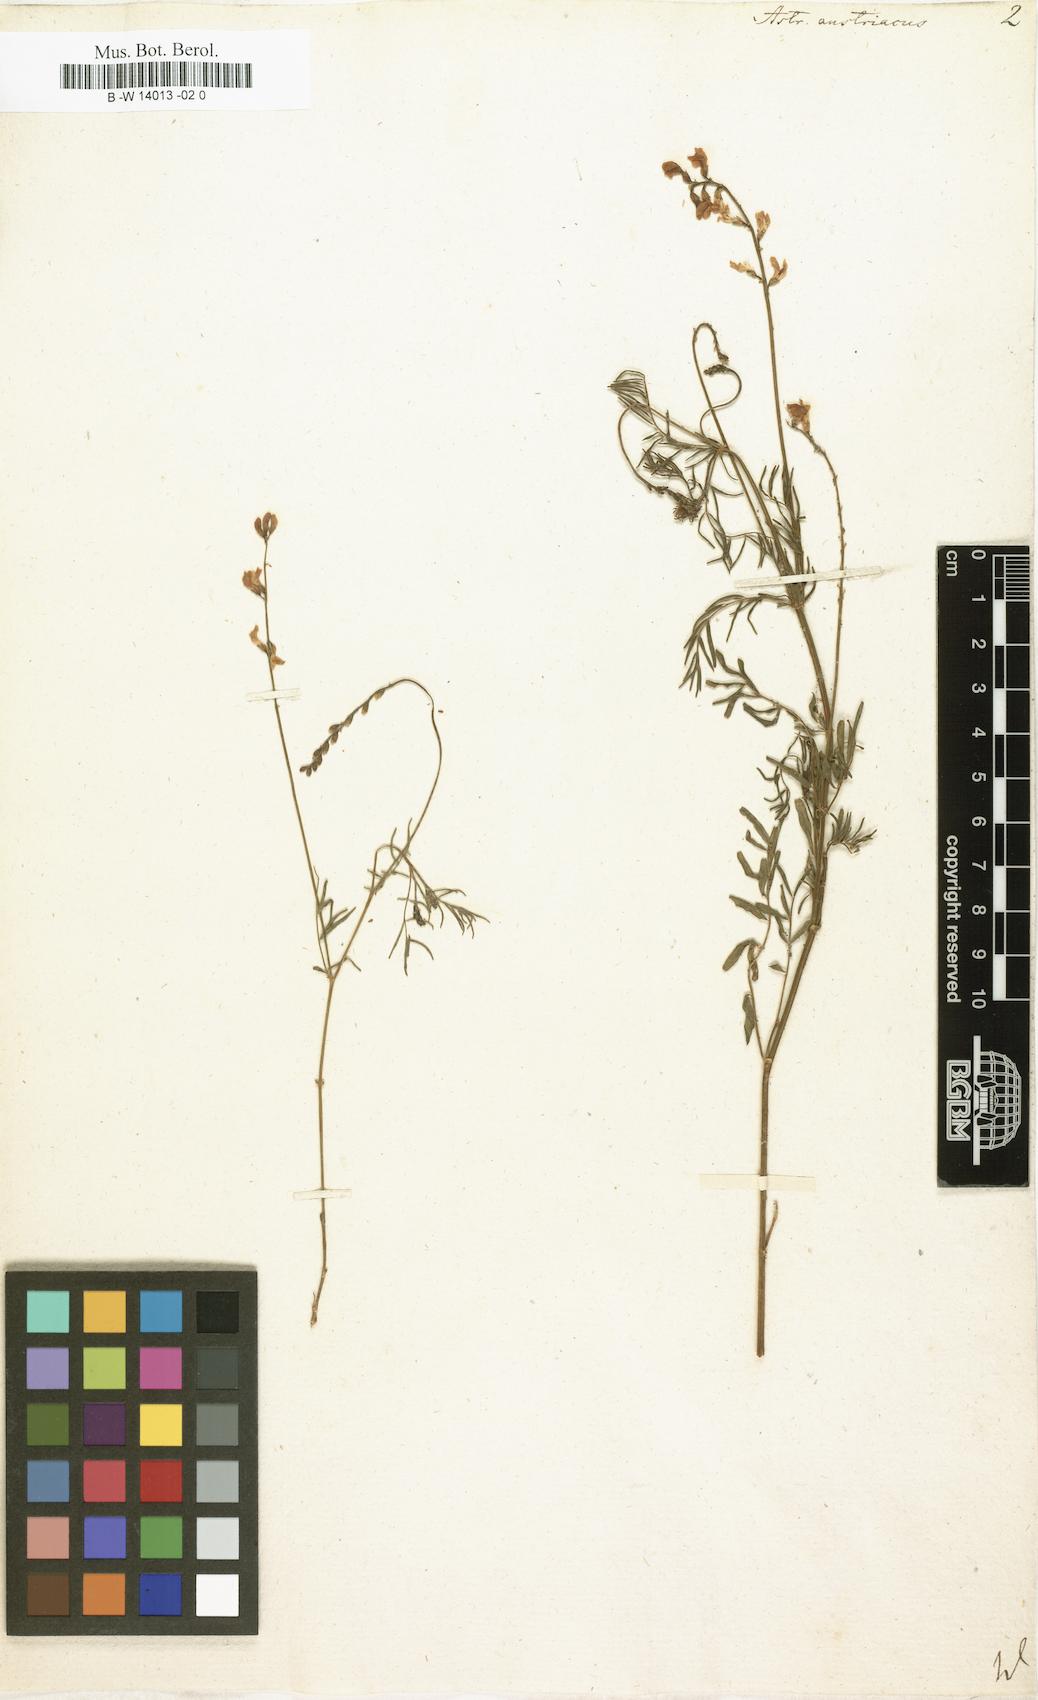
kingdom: Plantae
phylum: Tracheophyta
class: Magnoliopsida
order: Fabales
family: Fabaceae
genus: Astragalus
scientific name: Astragalus austriacus
